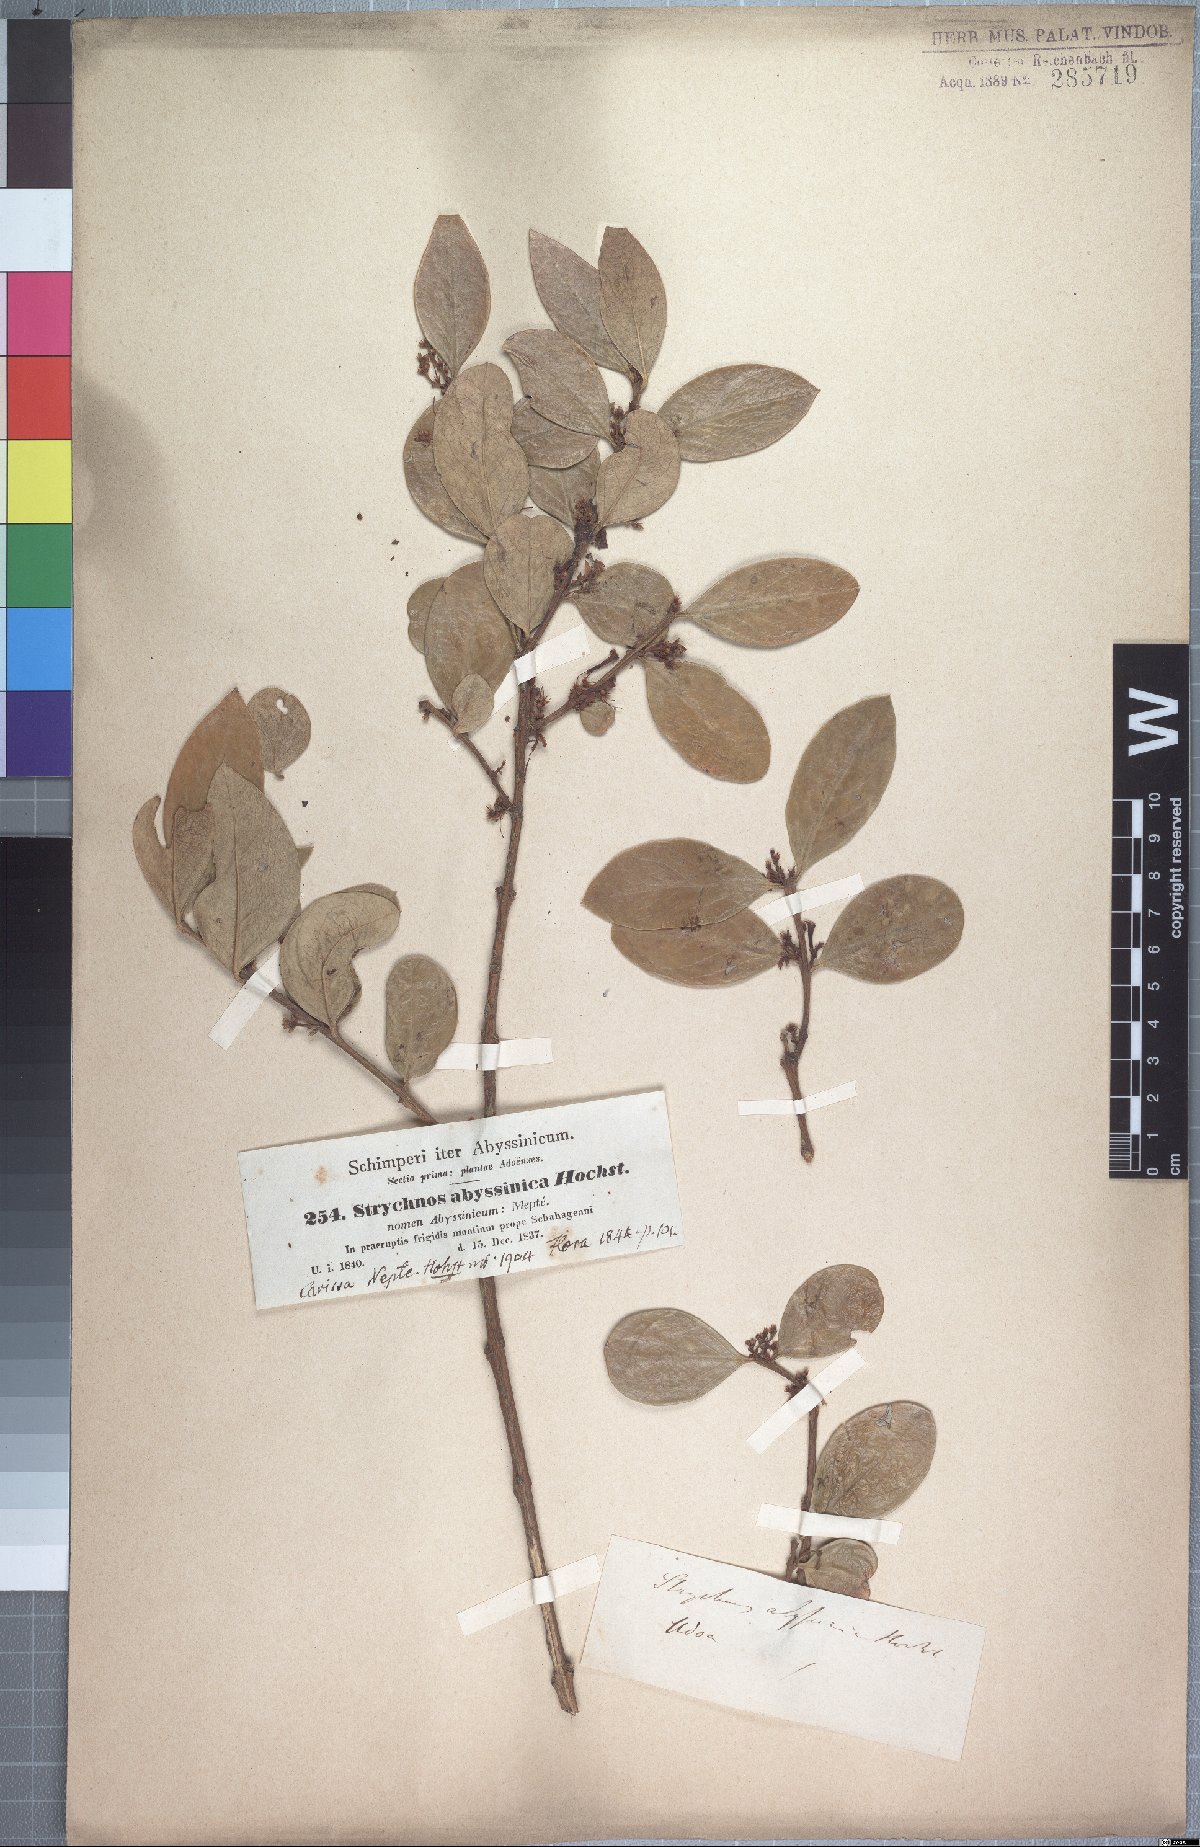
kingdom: Plantae
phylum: Tracheophyta
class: Magnoliopsida
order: Gentianales
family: Apocynaceae
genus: Acokanthera
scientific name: Acokanthera schimperi
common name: Arrow-poison-tree
